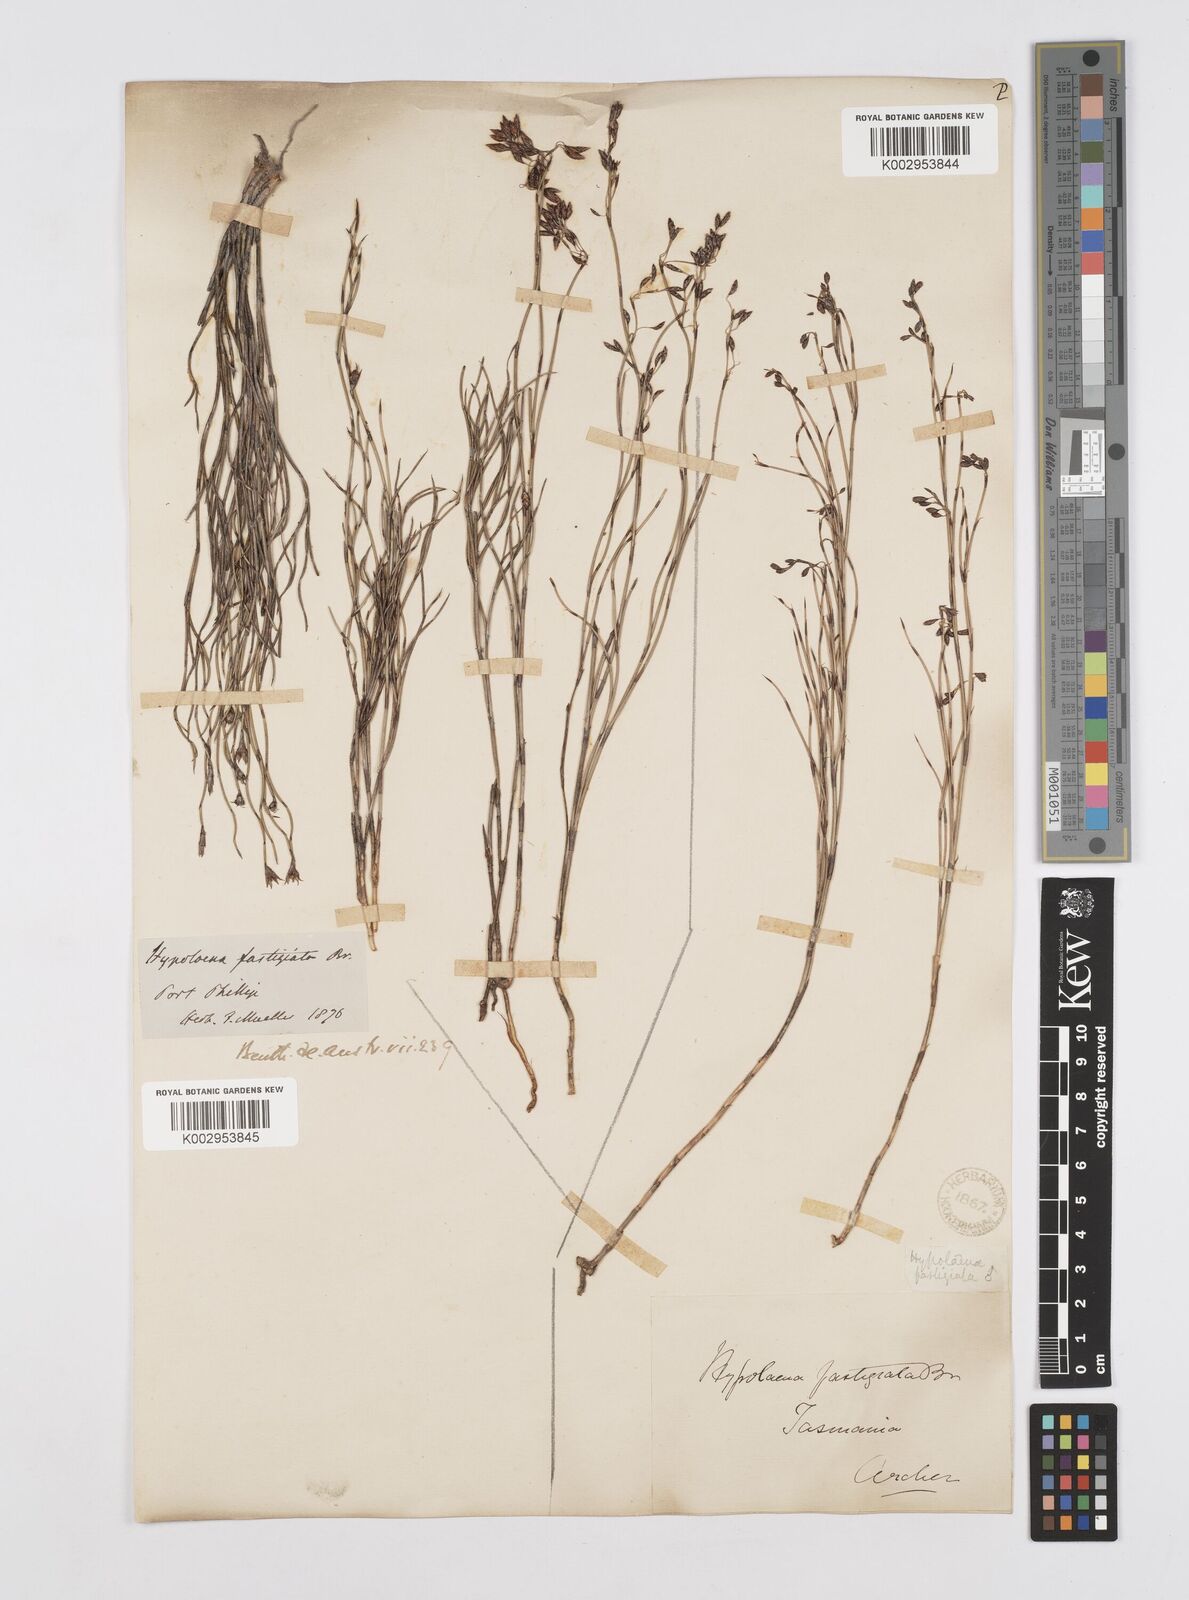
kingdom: Plantae
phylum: Tracheophyta
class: Liliopsida
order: Poales
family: Restionaceae
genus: Hypolaena
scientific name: Hypolaena fastigiata
